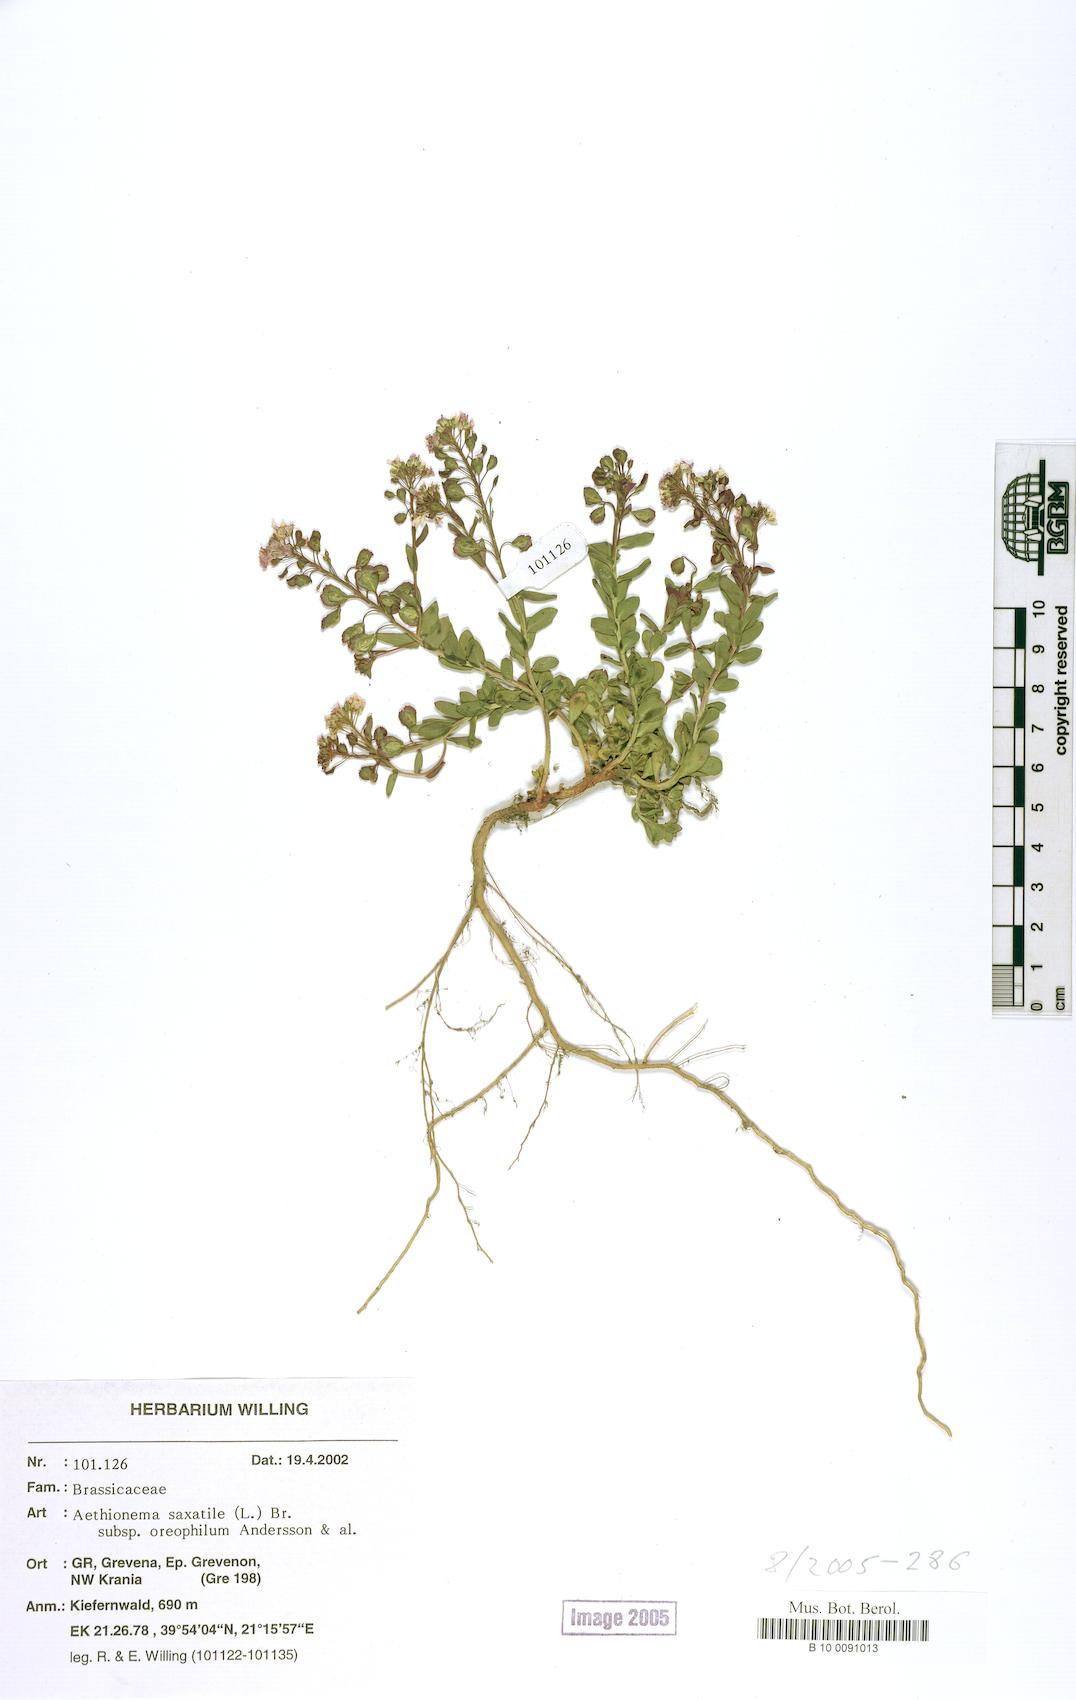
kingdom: Plantae
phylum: Tracheophyta
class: Magnoliopsida
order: Brassicales
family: Brassicaceae
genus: Aethionema
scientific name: Aethionema saxatile
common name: Burnt candytuft
